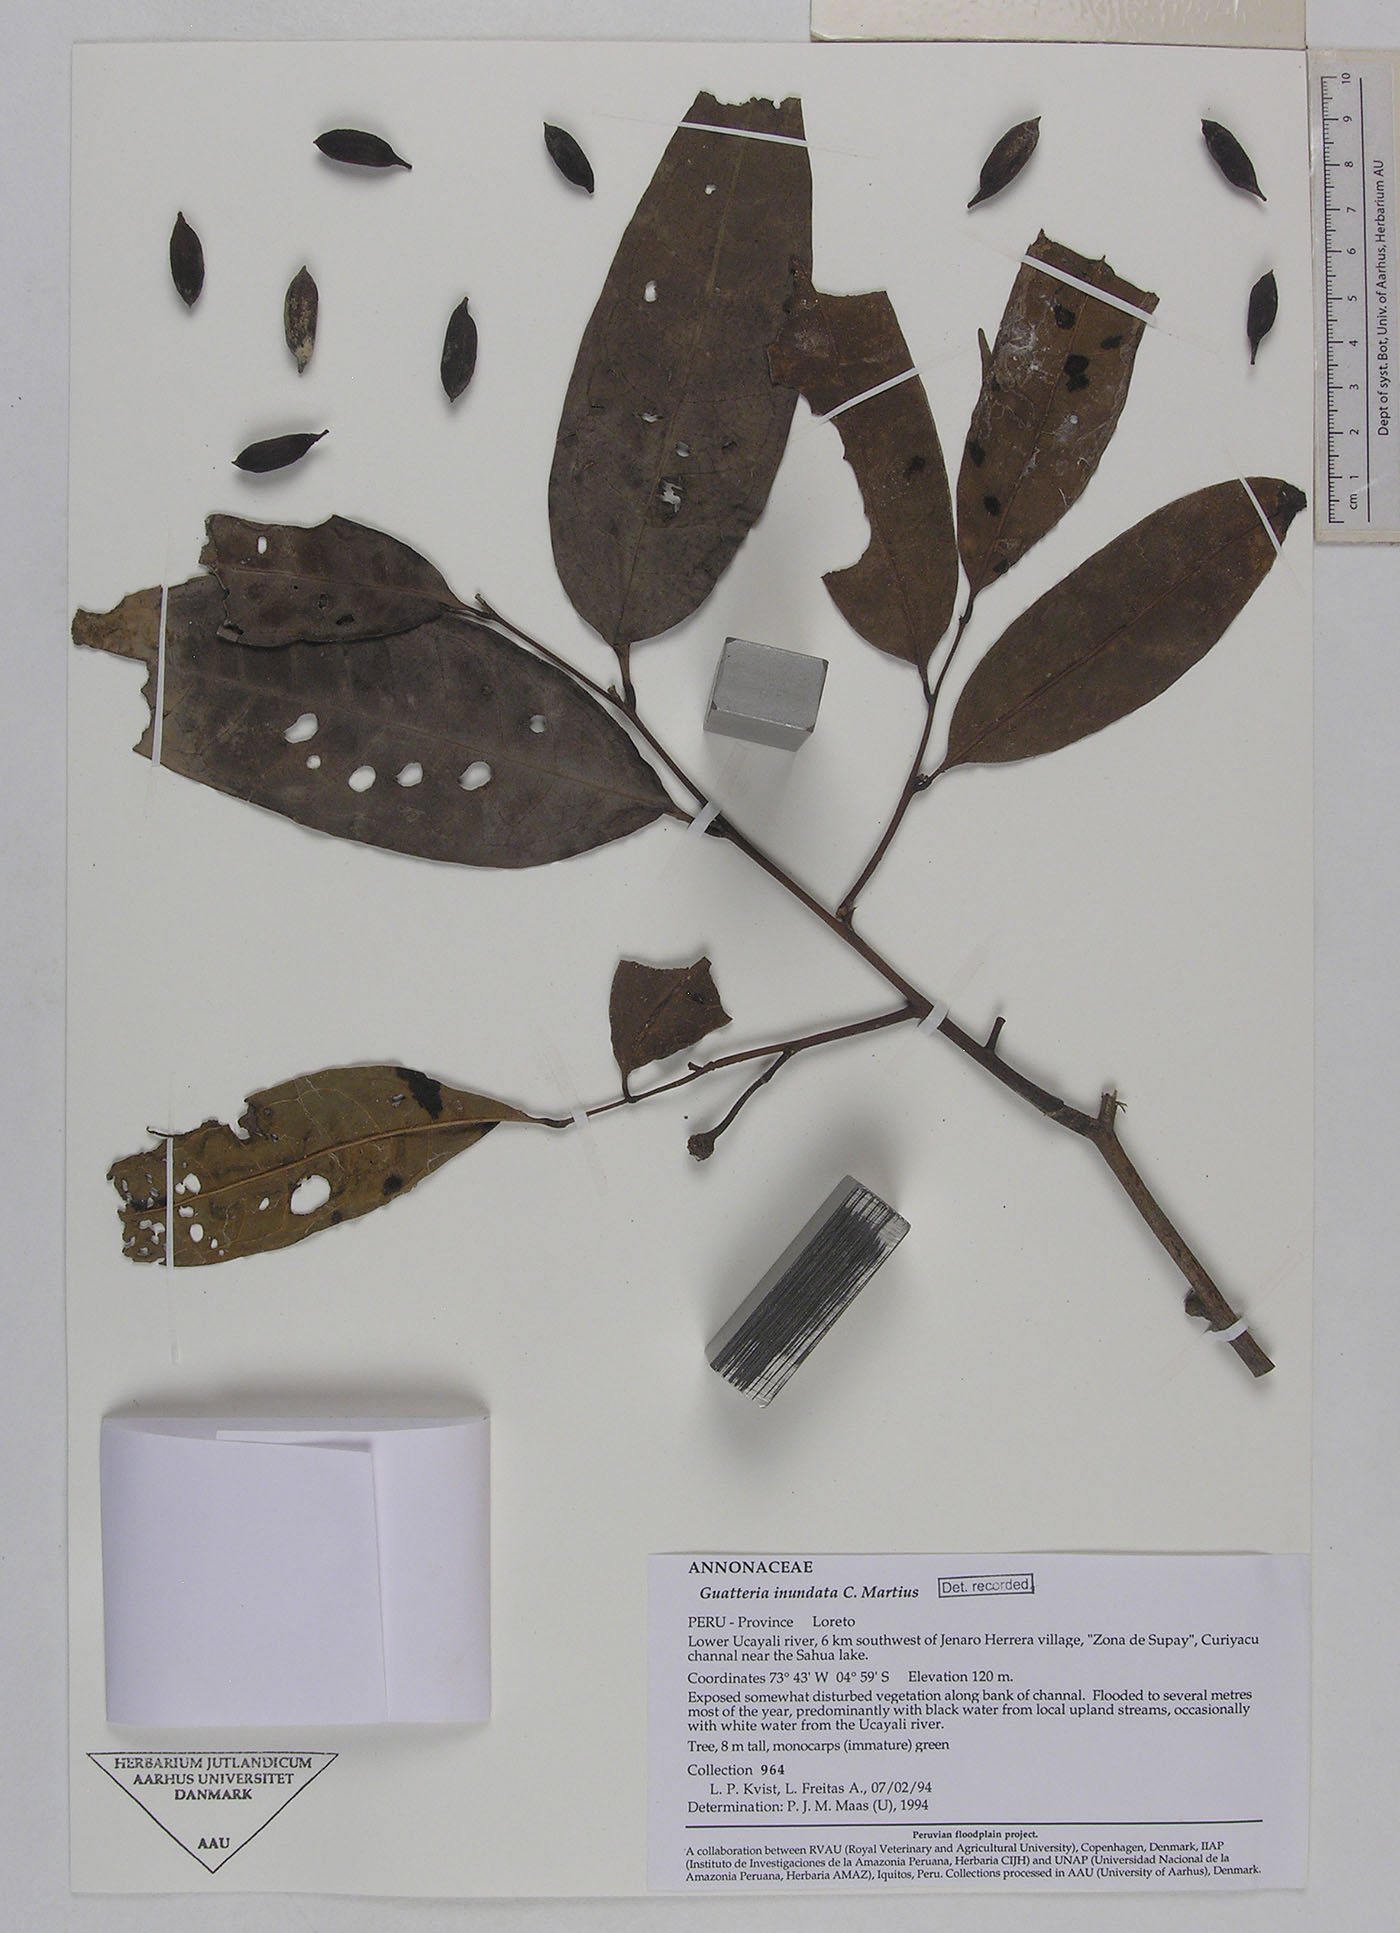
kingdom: Plantae
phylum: Tracheophyta
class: Magnoliopsida
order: Magnoliales
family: Annonaceae
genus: Guatteria
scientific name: Guatteria inundata
